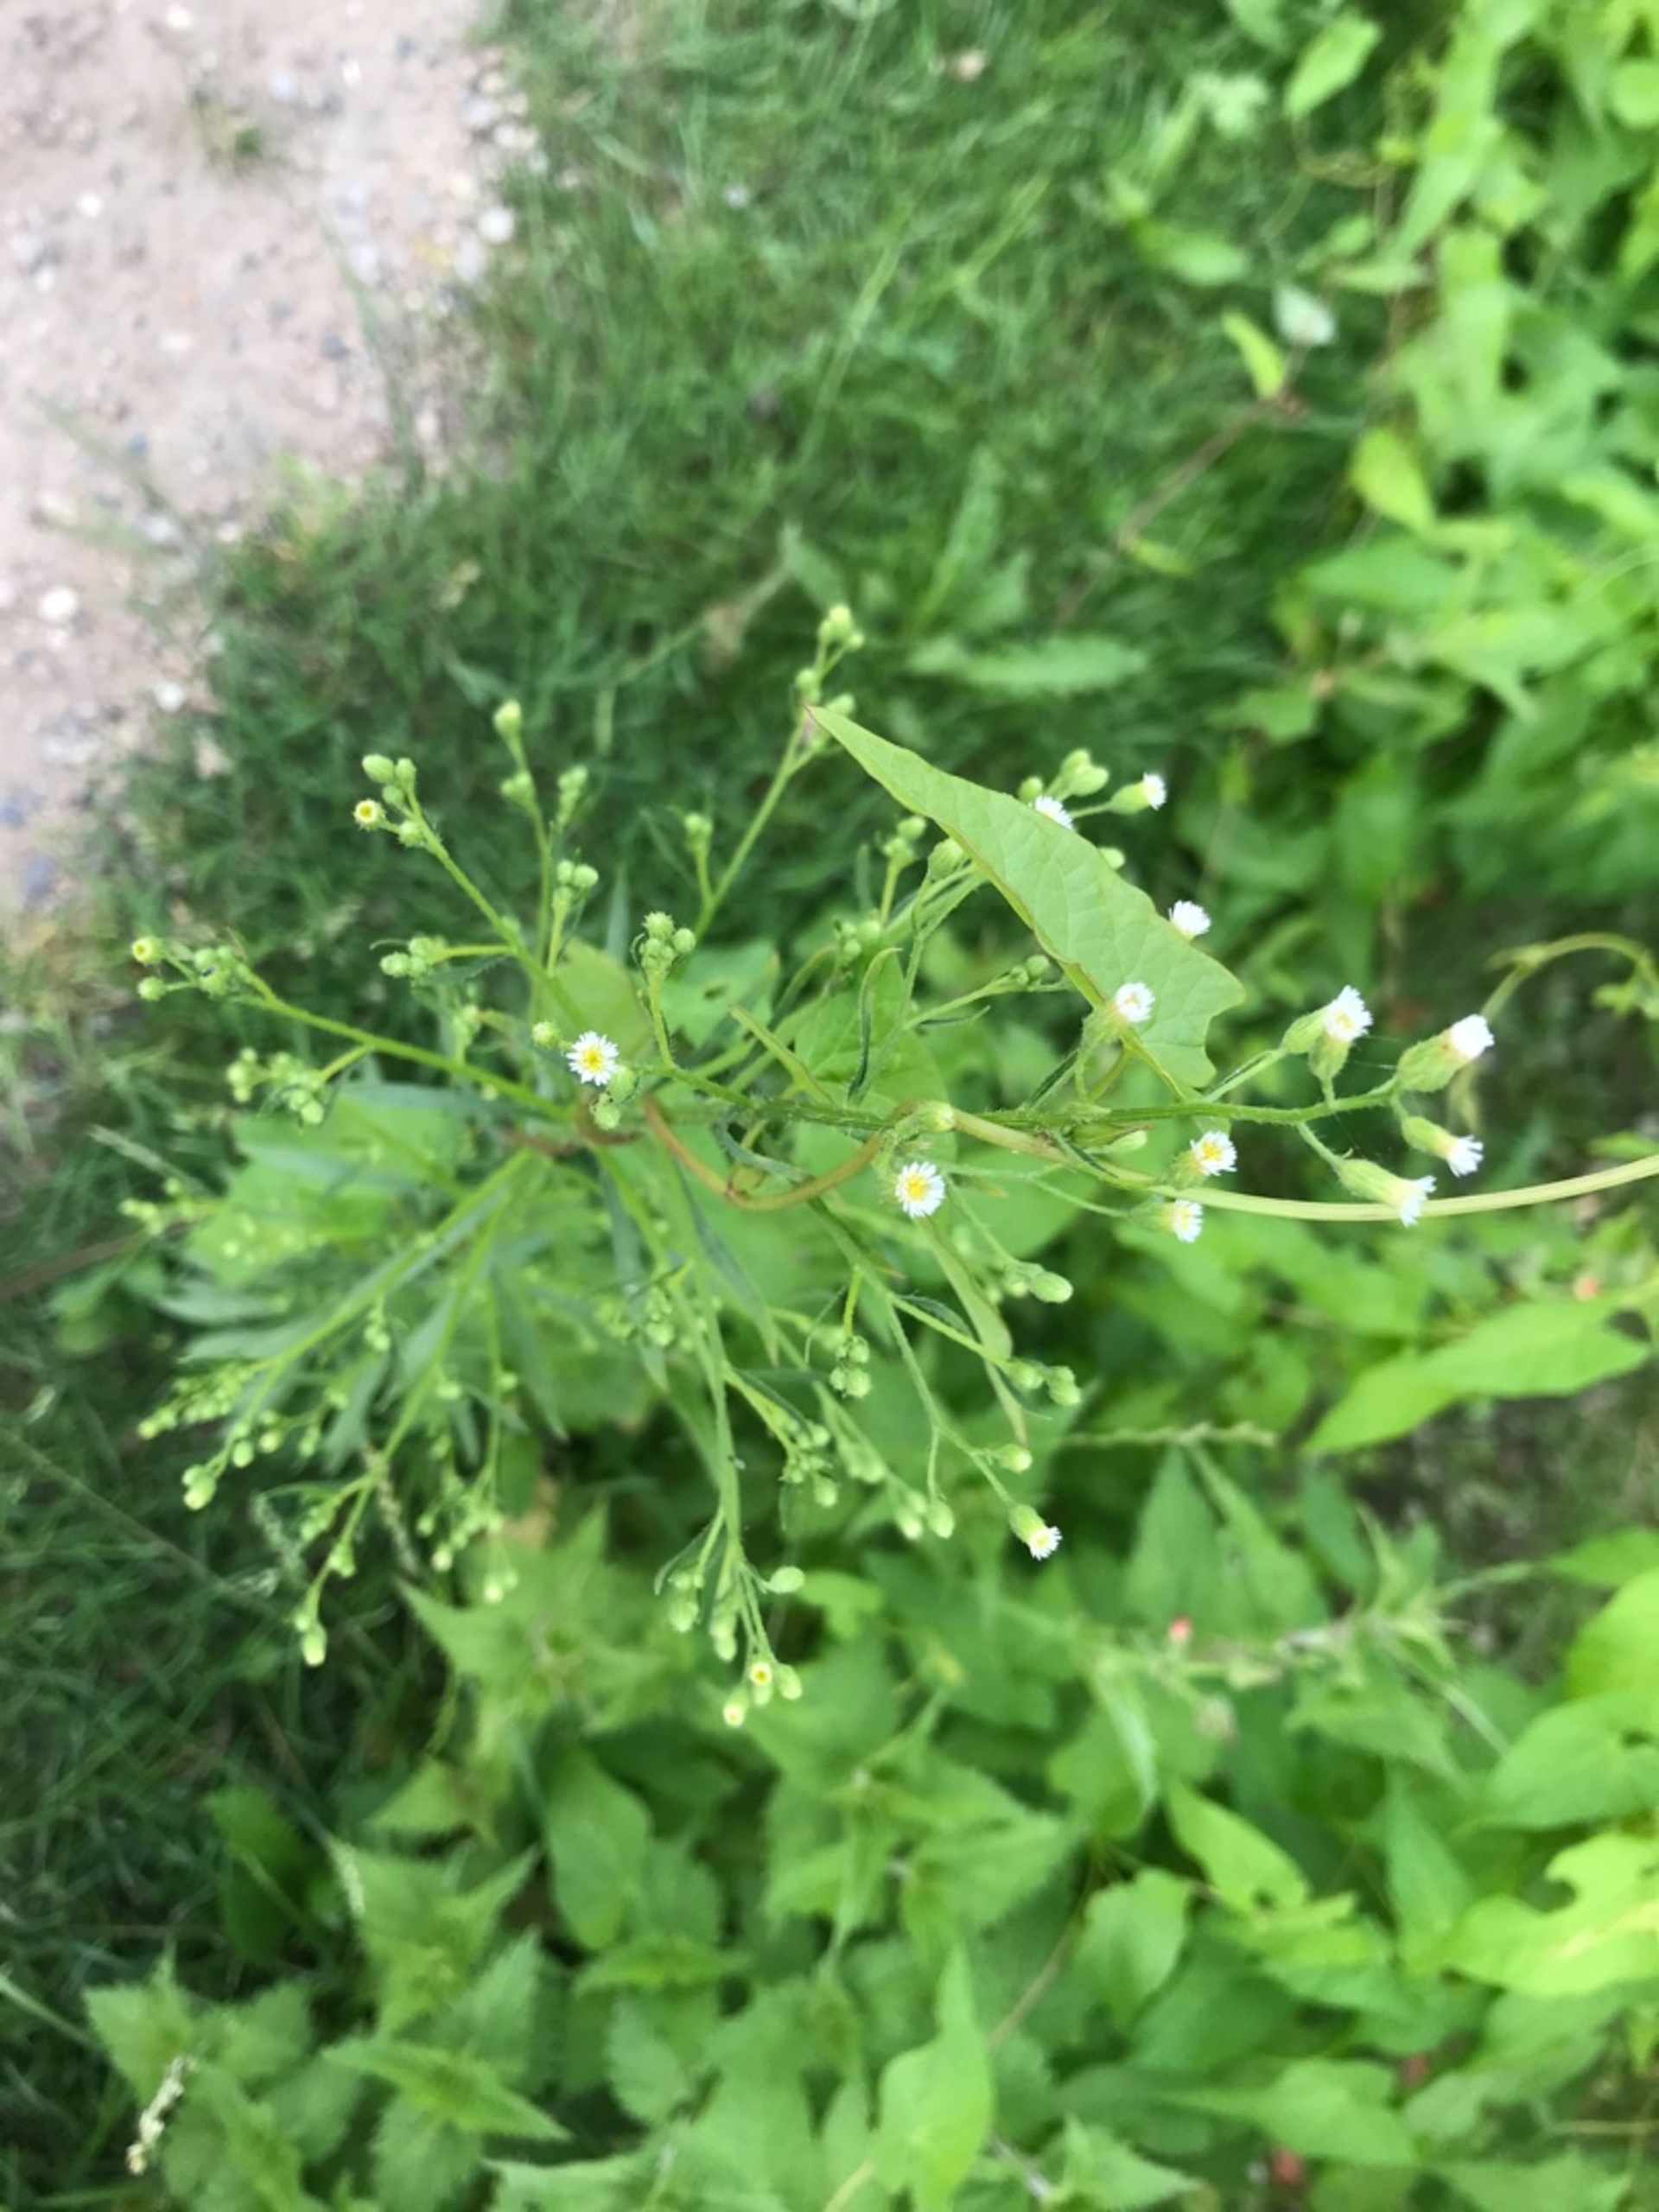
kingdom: Plantae
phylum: Tracheophyta
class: Magnoliopsida
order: Asterales
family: Asteraceae
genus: Erigeron
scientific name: Erigeron canadensis
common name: Kanadisk bakkestjerne
